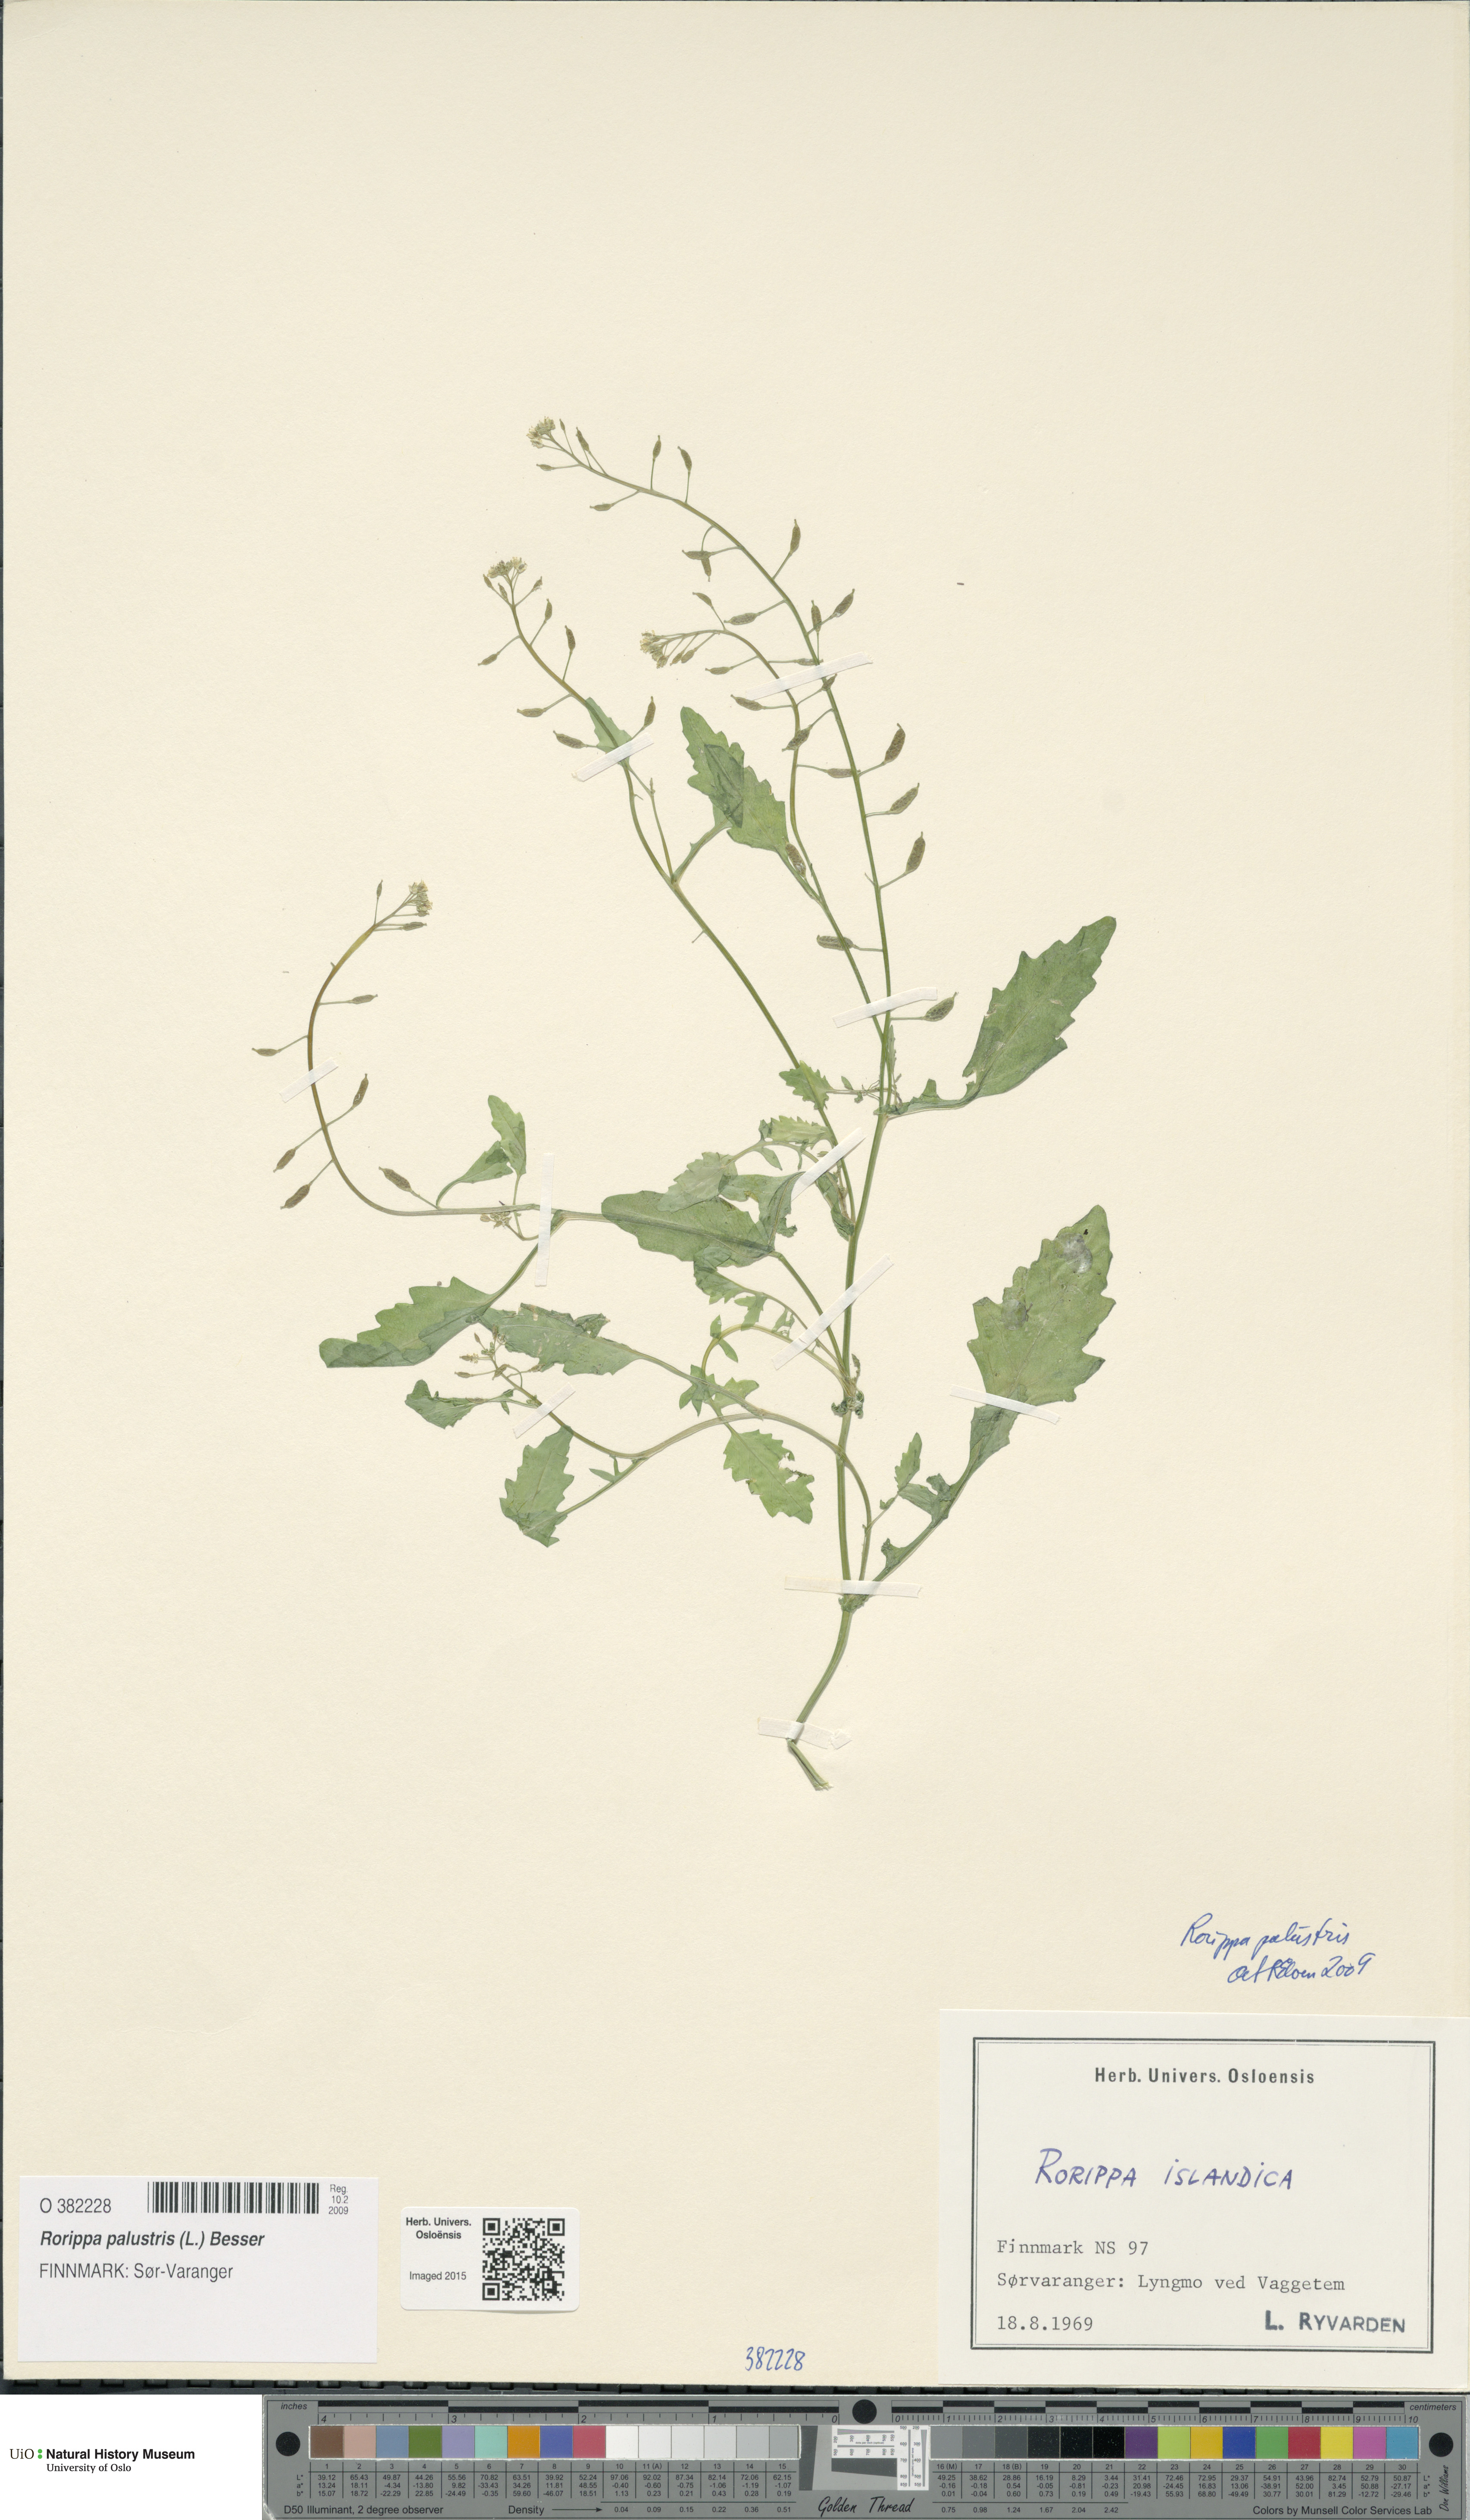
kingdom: Plantae
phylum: Tracheophyta
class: Magnoliopsida
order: Brassicales
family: Brassicaceae
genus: Rorippa
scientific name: Rorippa palustris
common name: Marsh yellow-cress
